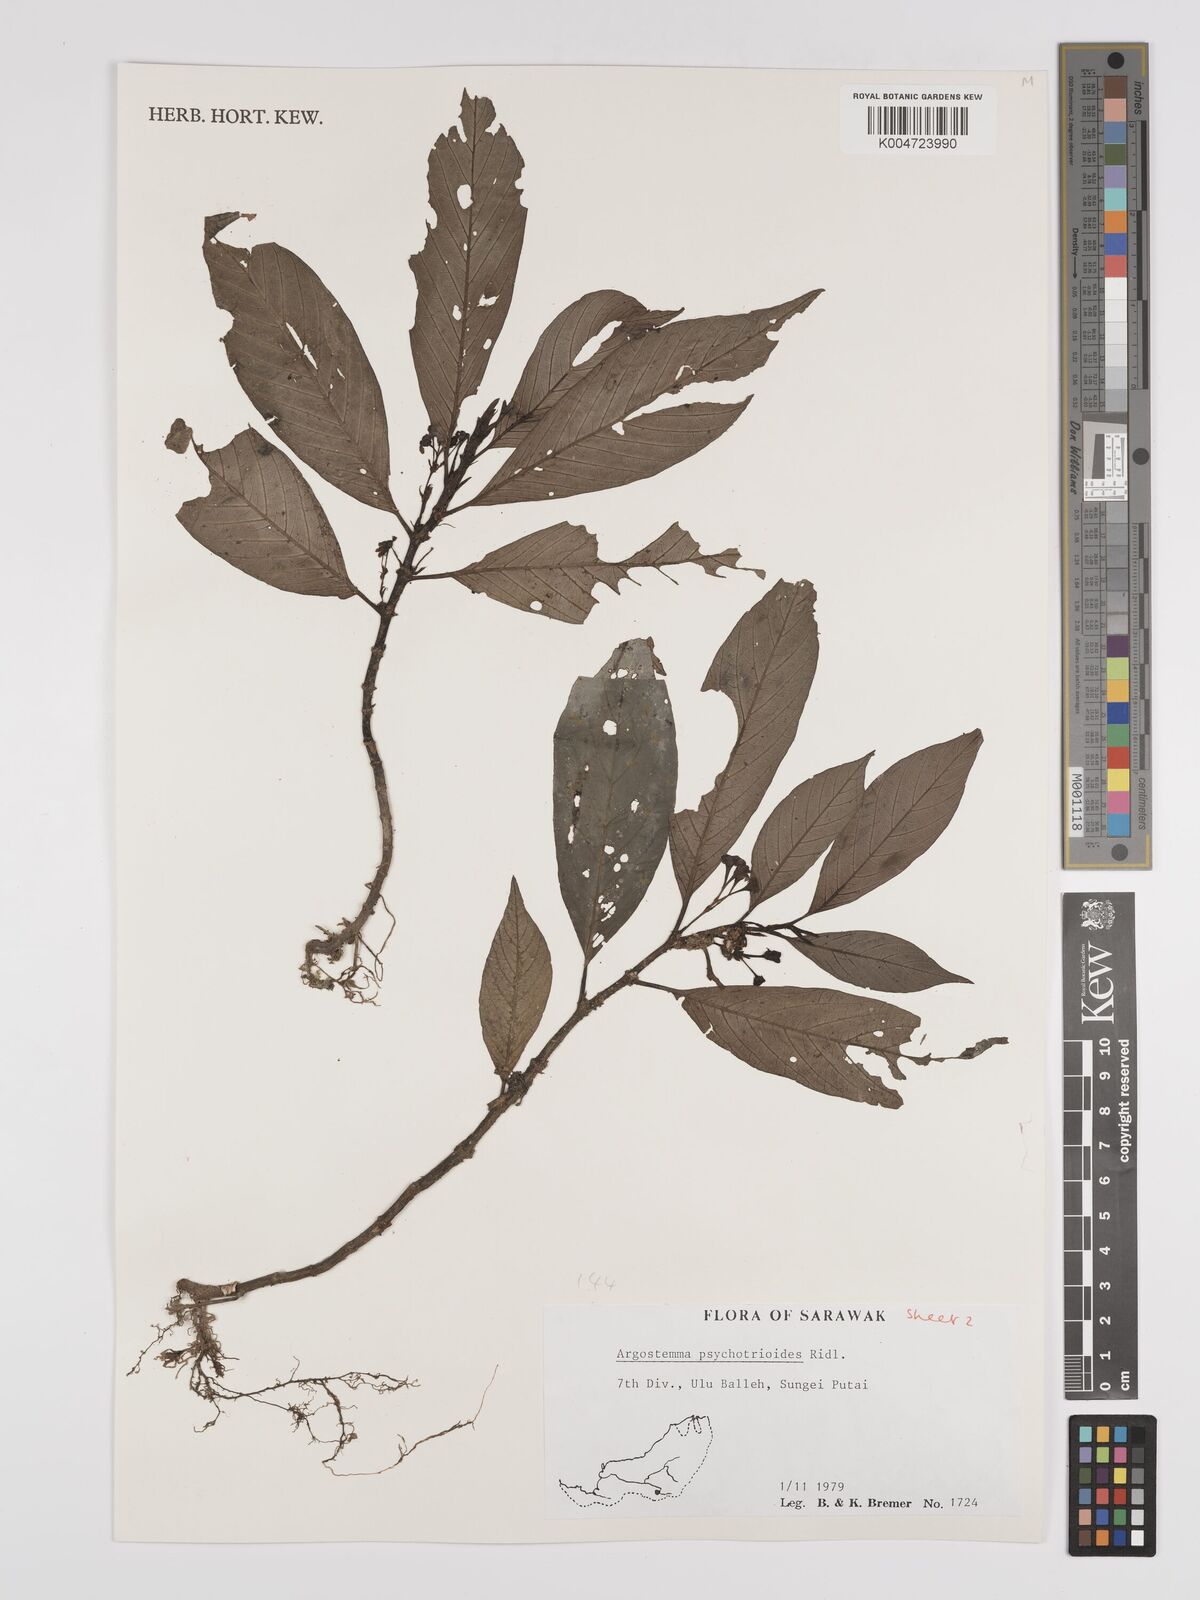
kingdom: Plantae
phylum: Tracheophyta
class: Magnoliopsida
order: Gentianales
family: Rubiaceae
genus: Argostemma
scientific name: Argostemma psychotrioides
